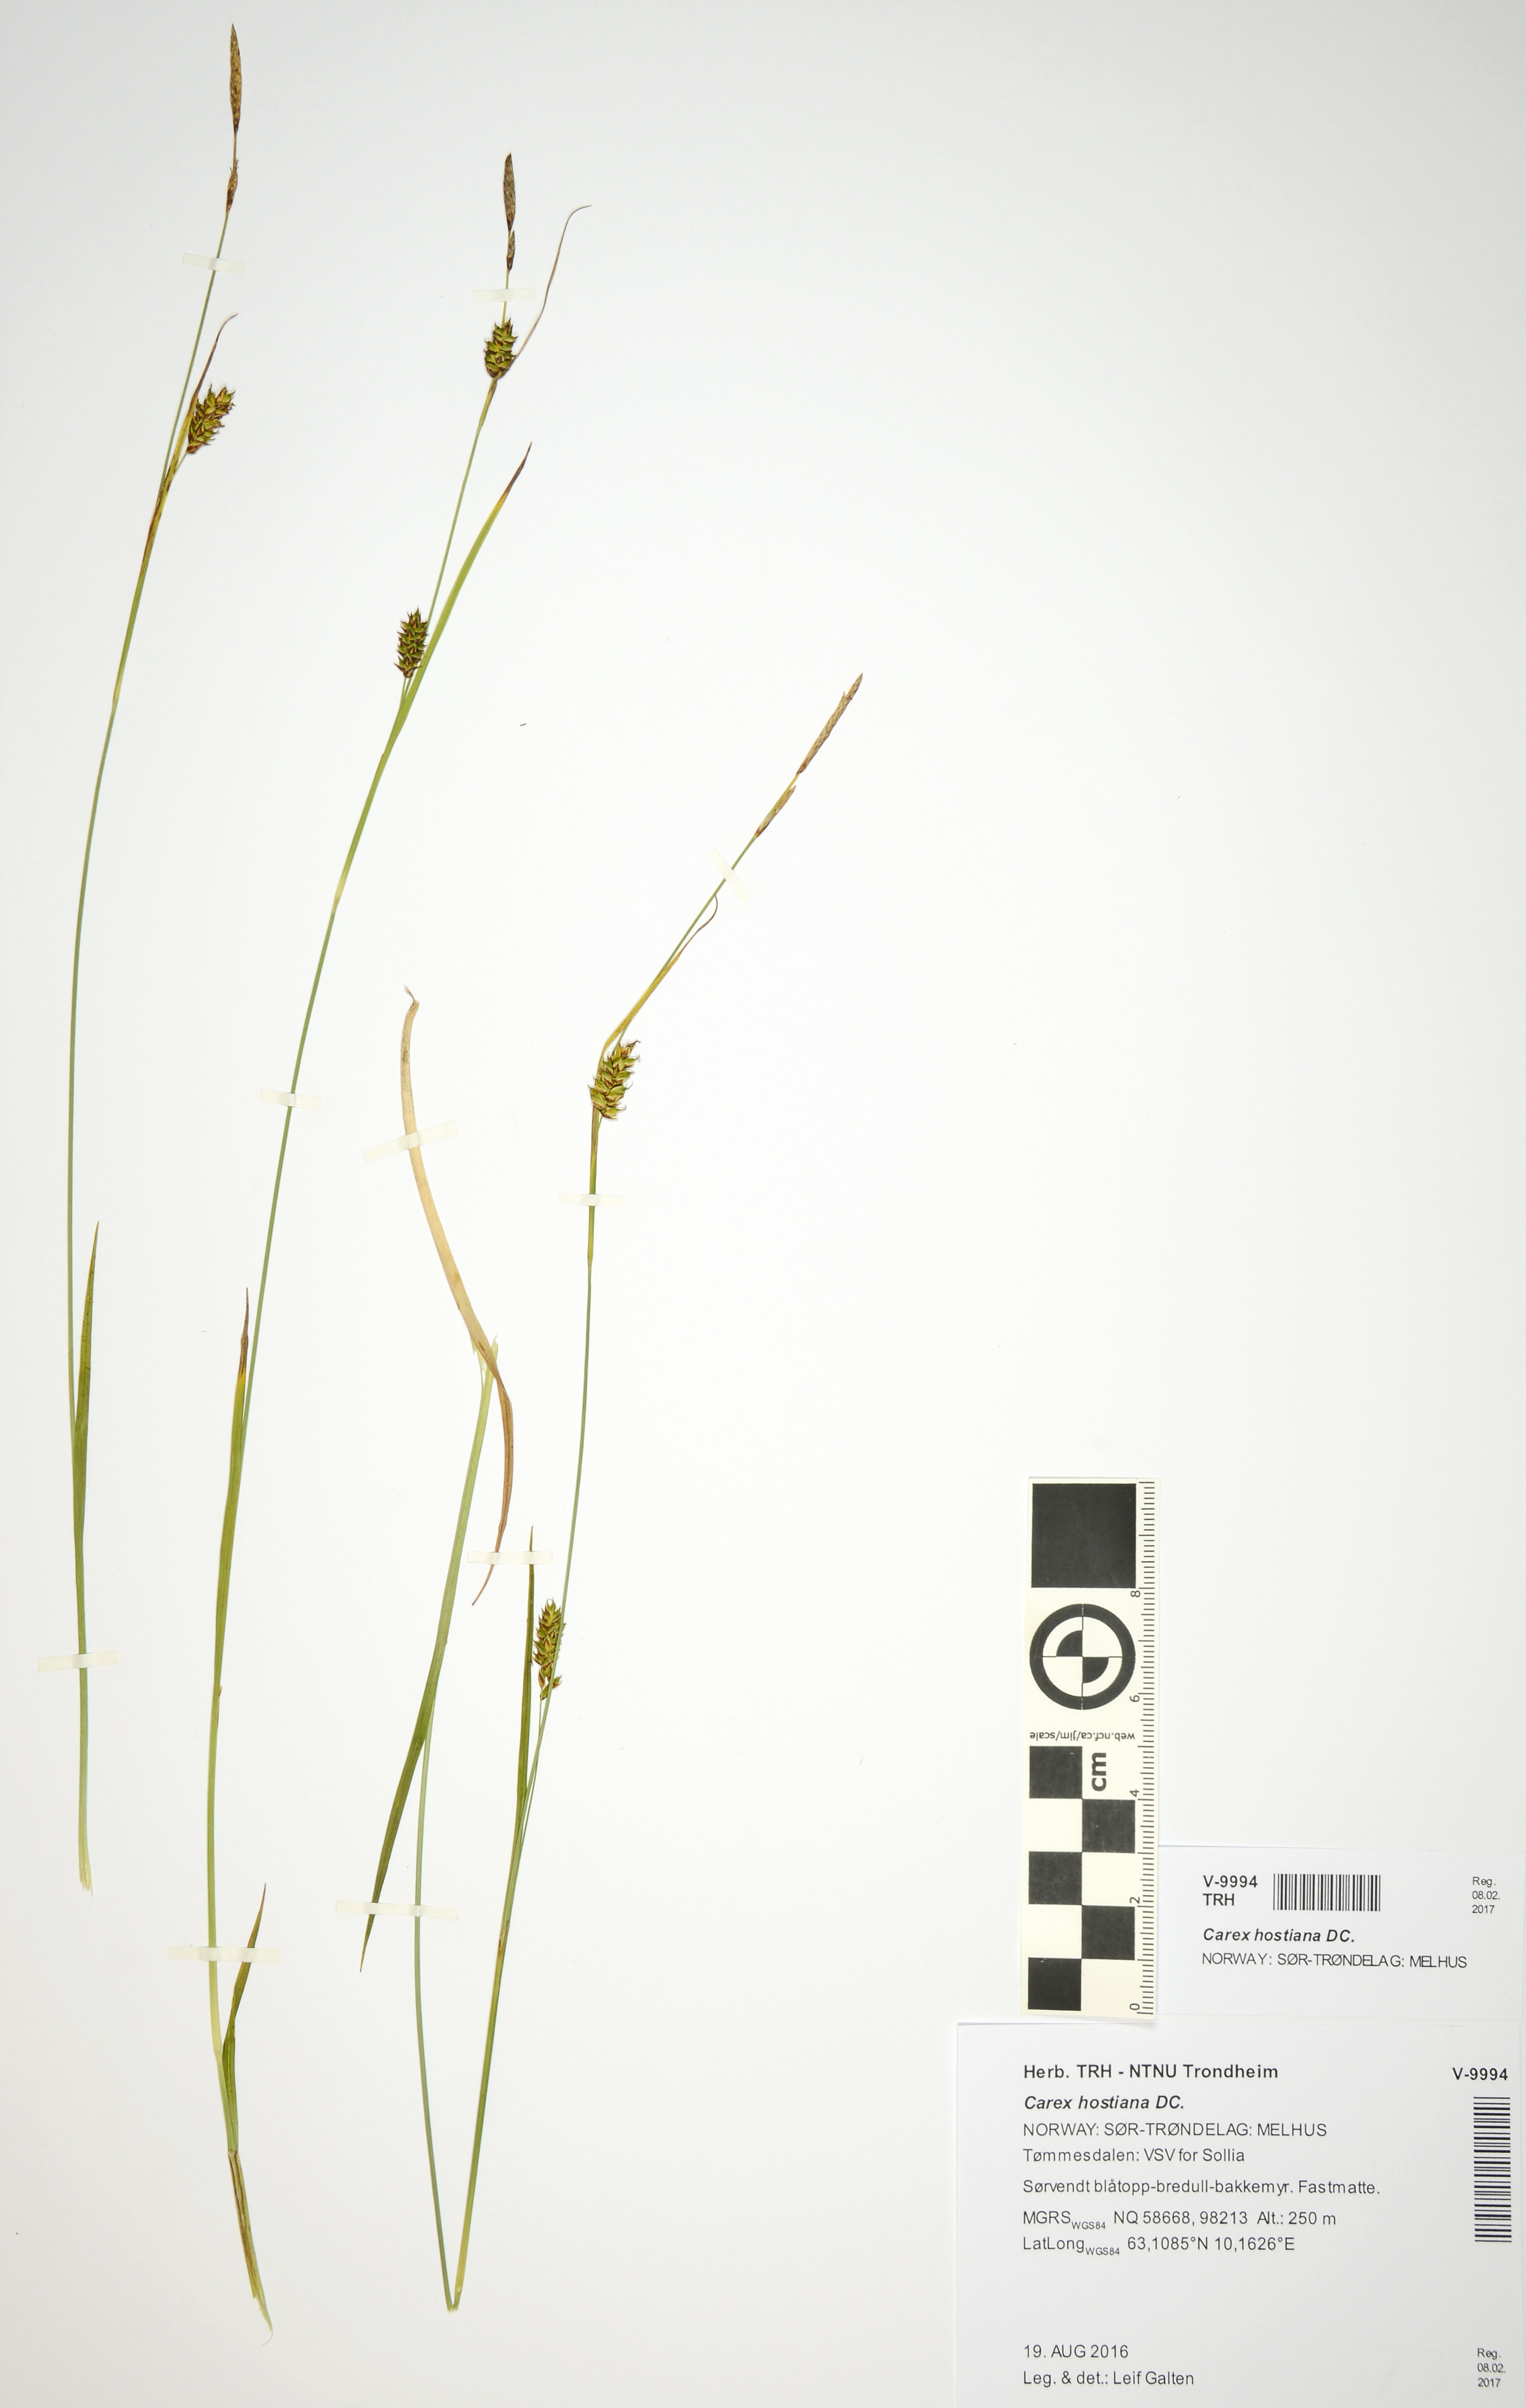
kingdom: Plantae
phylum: Tracheophyta
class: Liliopsida
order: Poales
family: Cyperaceae
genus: Carex
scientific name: Carex hostiana
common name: Tawny sedge
